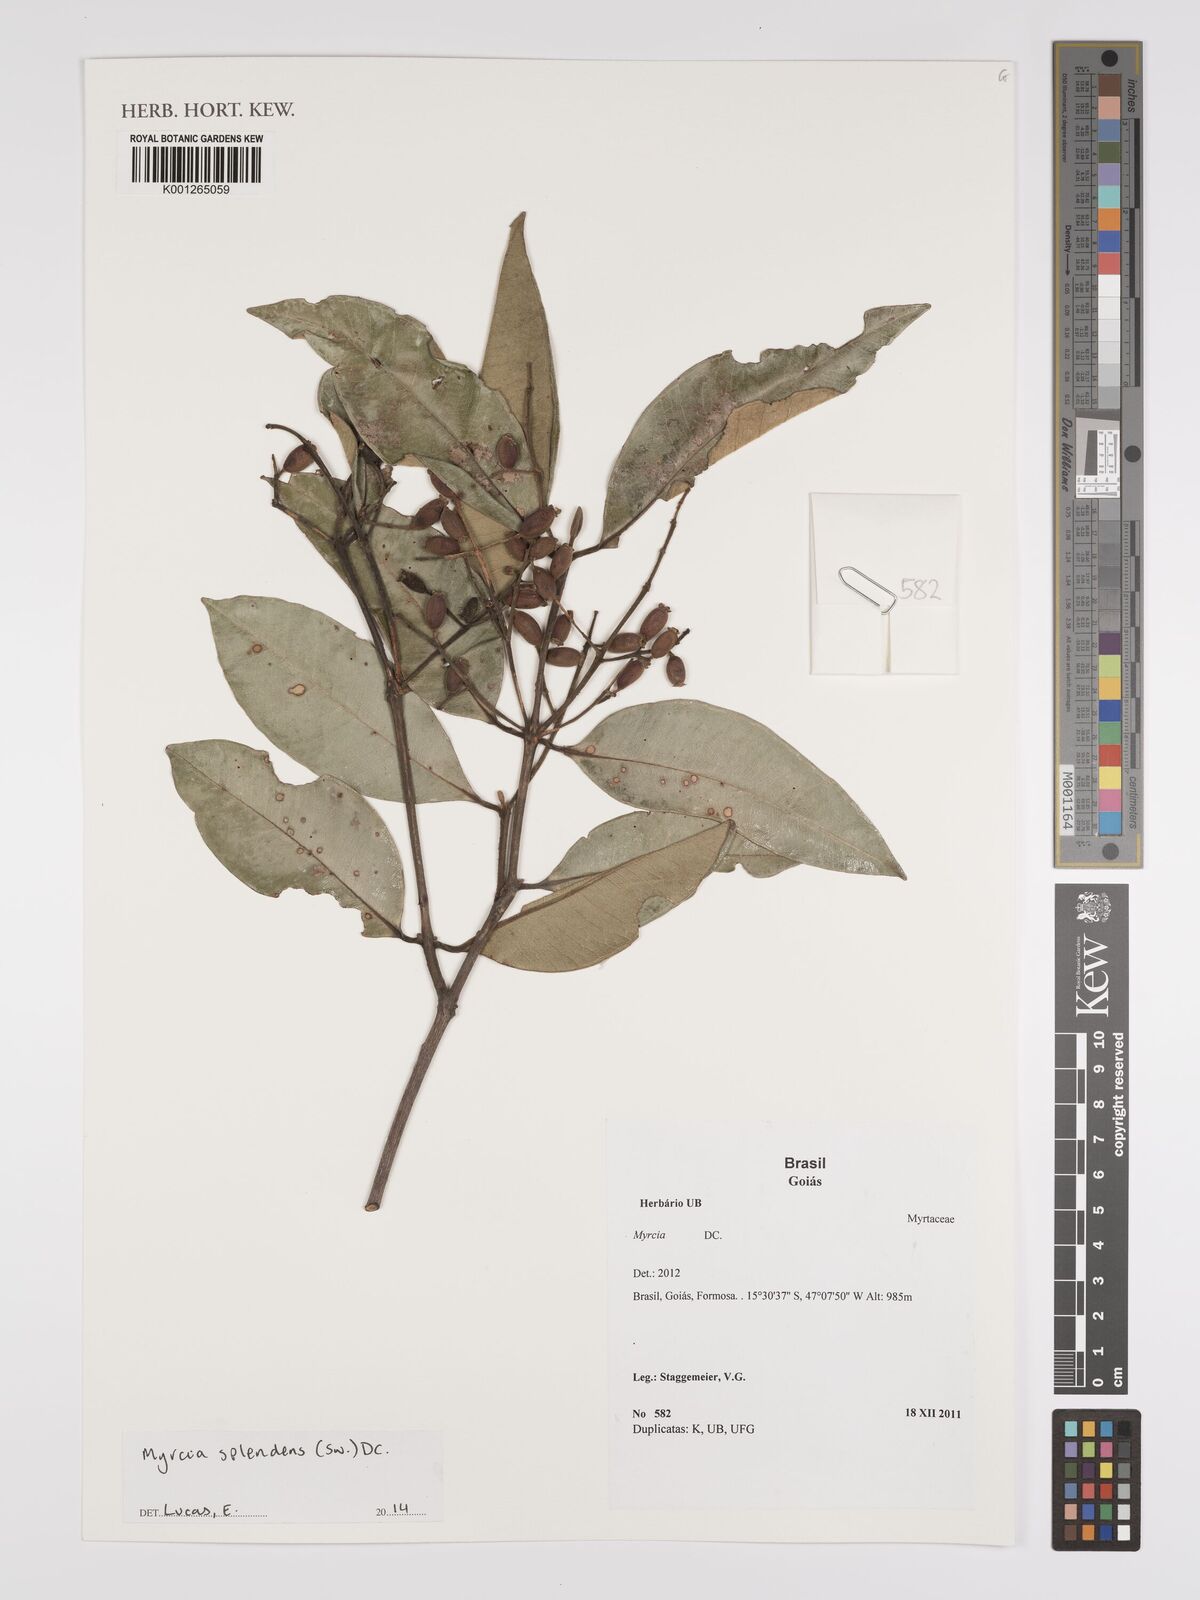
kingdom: Plantae
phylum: Tracheophyta
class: Magnoliopsida
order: Myrtales
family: Myrtaceae
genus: Myrcia
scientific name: Myrcia splendens
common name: Surinam cherry
